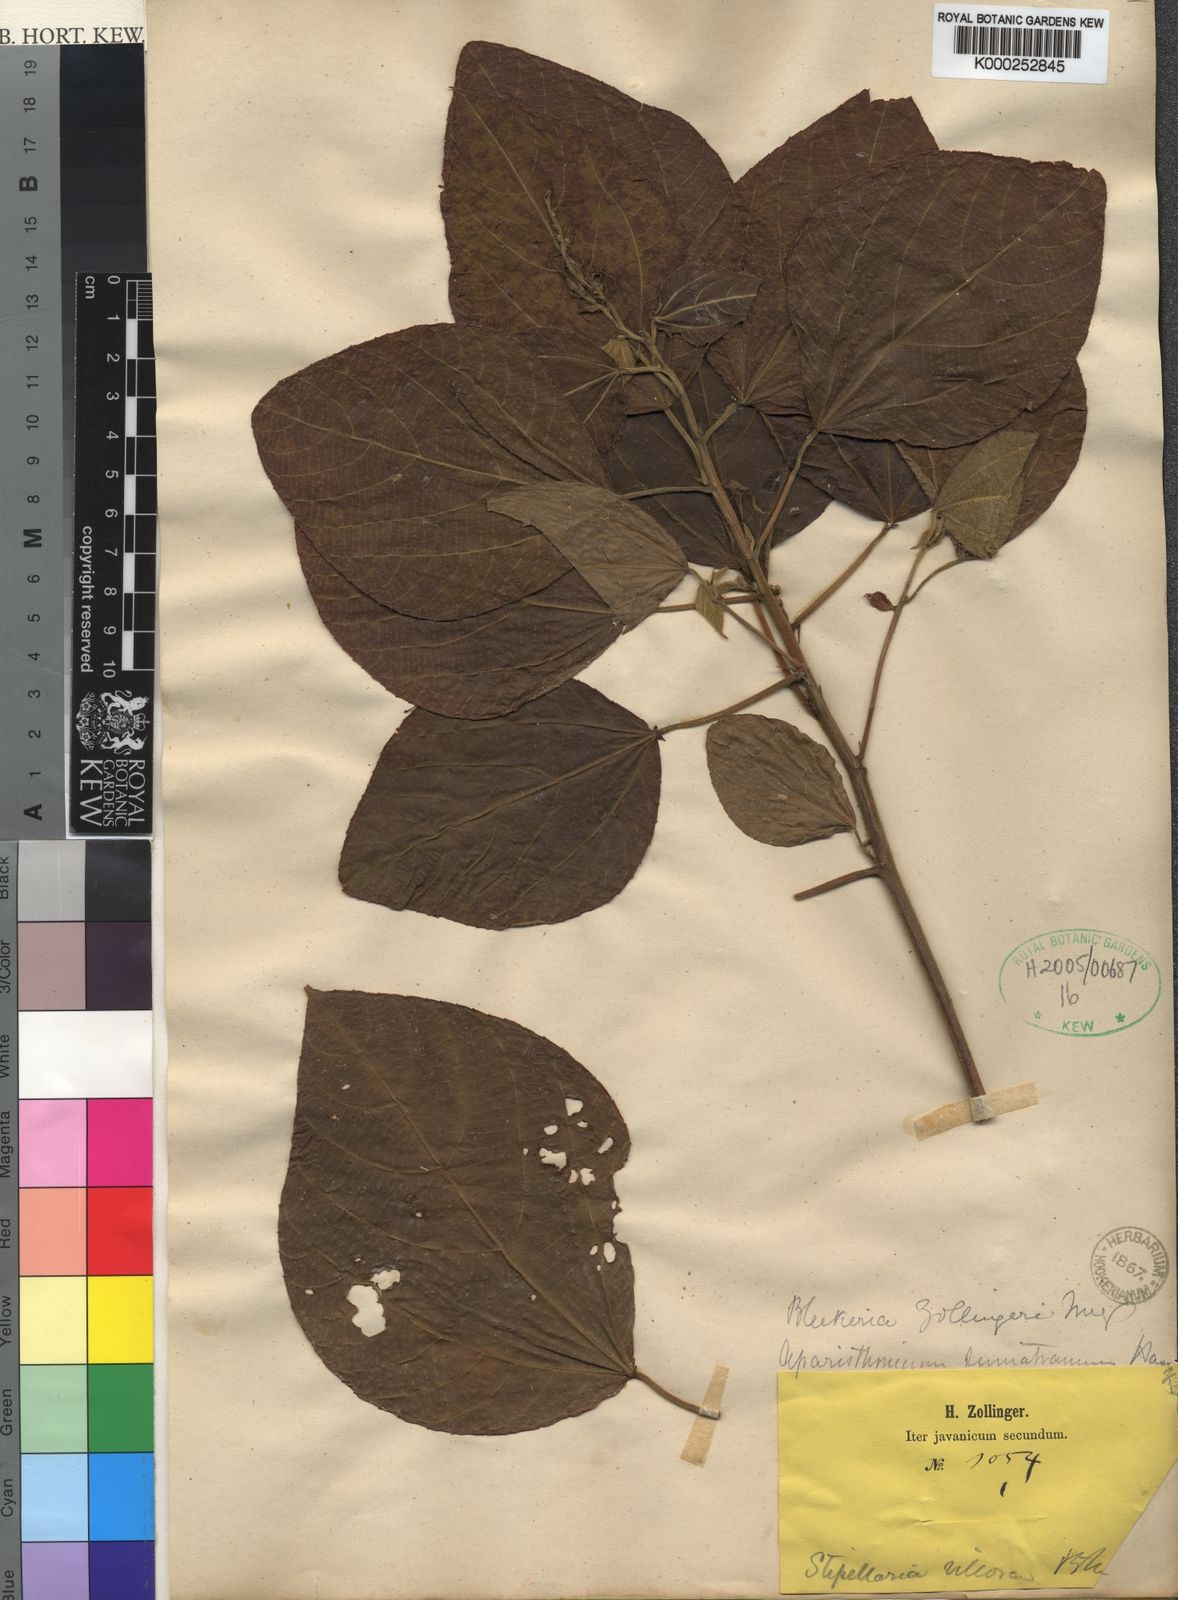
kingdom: Plantae
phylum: Tracheophyta
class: Magnoliopsida
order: Malpighiales
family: Euphorbiaceae
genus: Alchornea
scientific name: Alchornea
